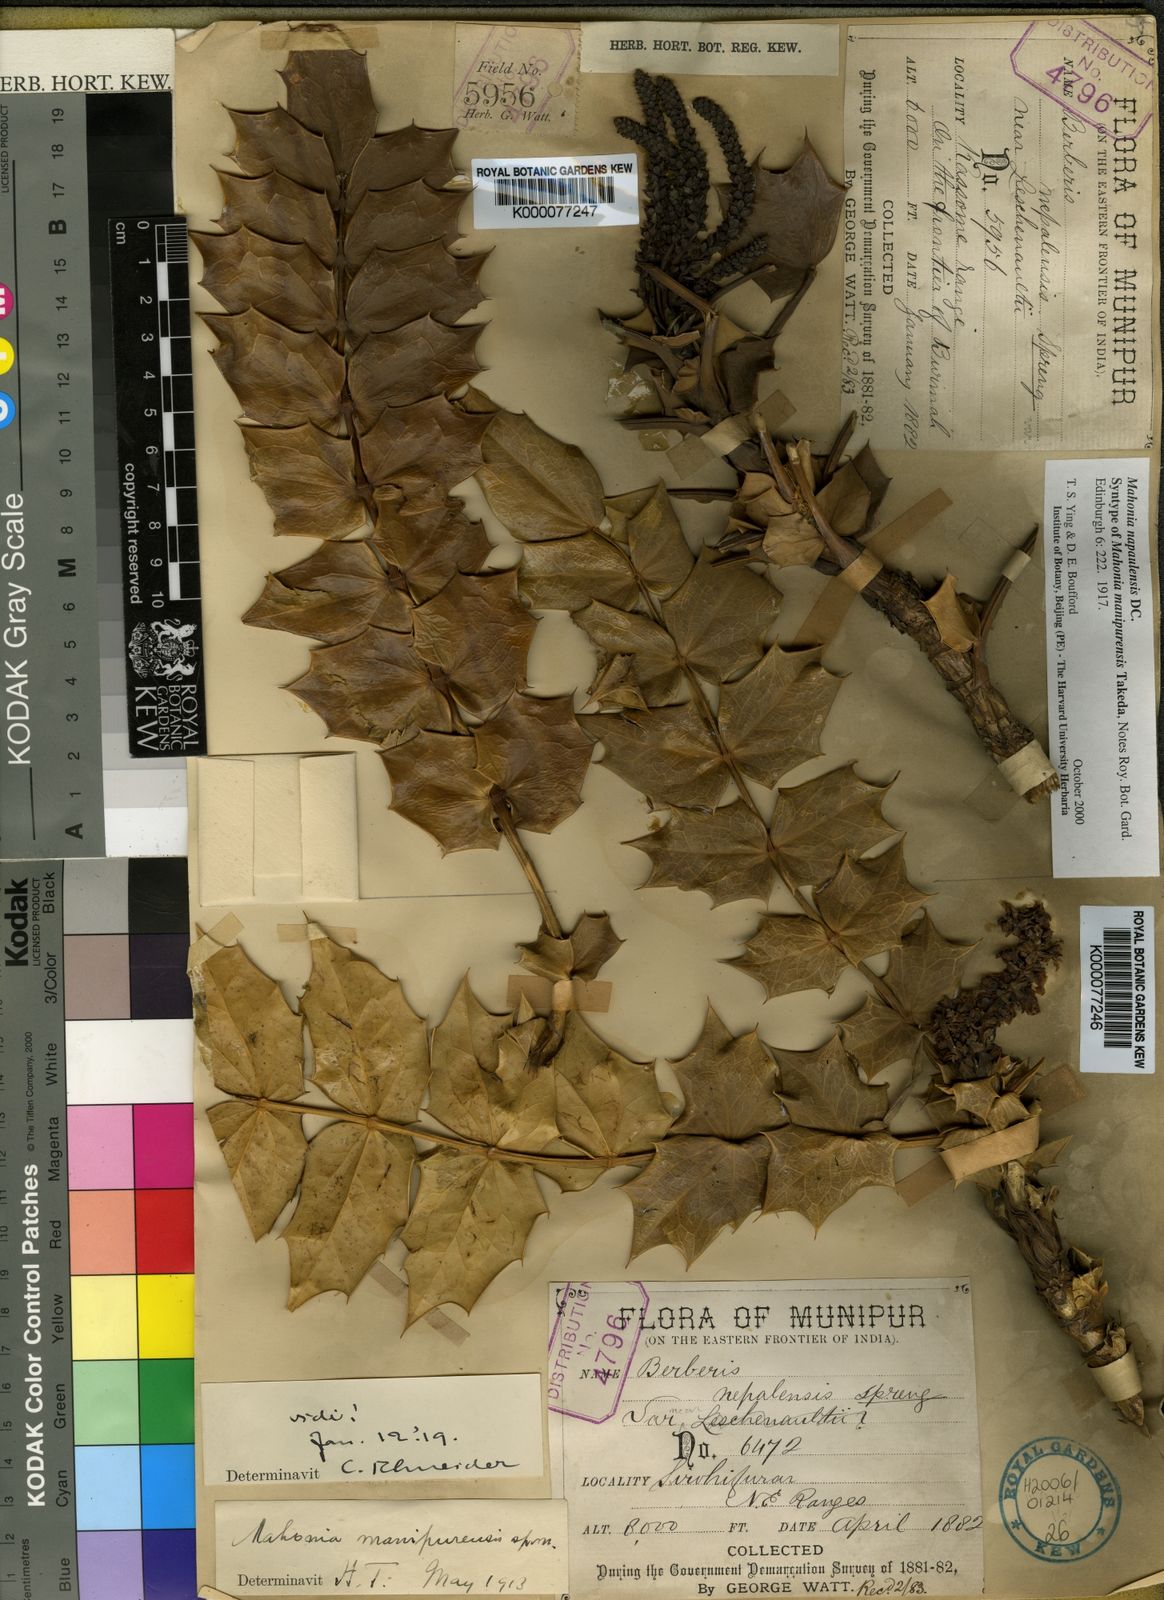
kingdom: Plantae
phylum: Tracheophyta
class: Magnoliopsida
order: Ranunculales
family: Berberidaceae
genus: Mahonia
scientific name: Mahonia napaulensis
